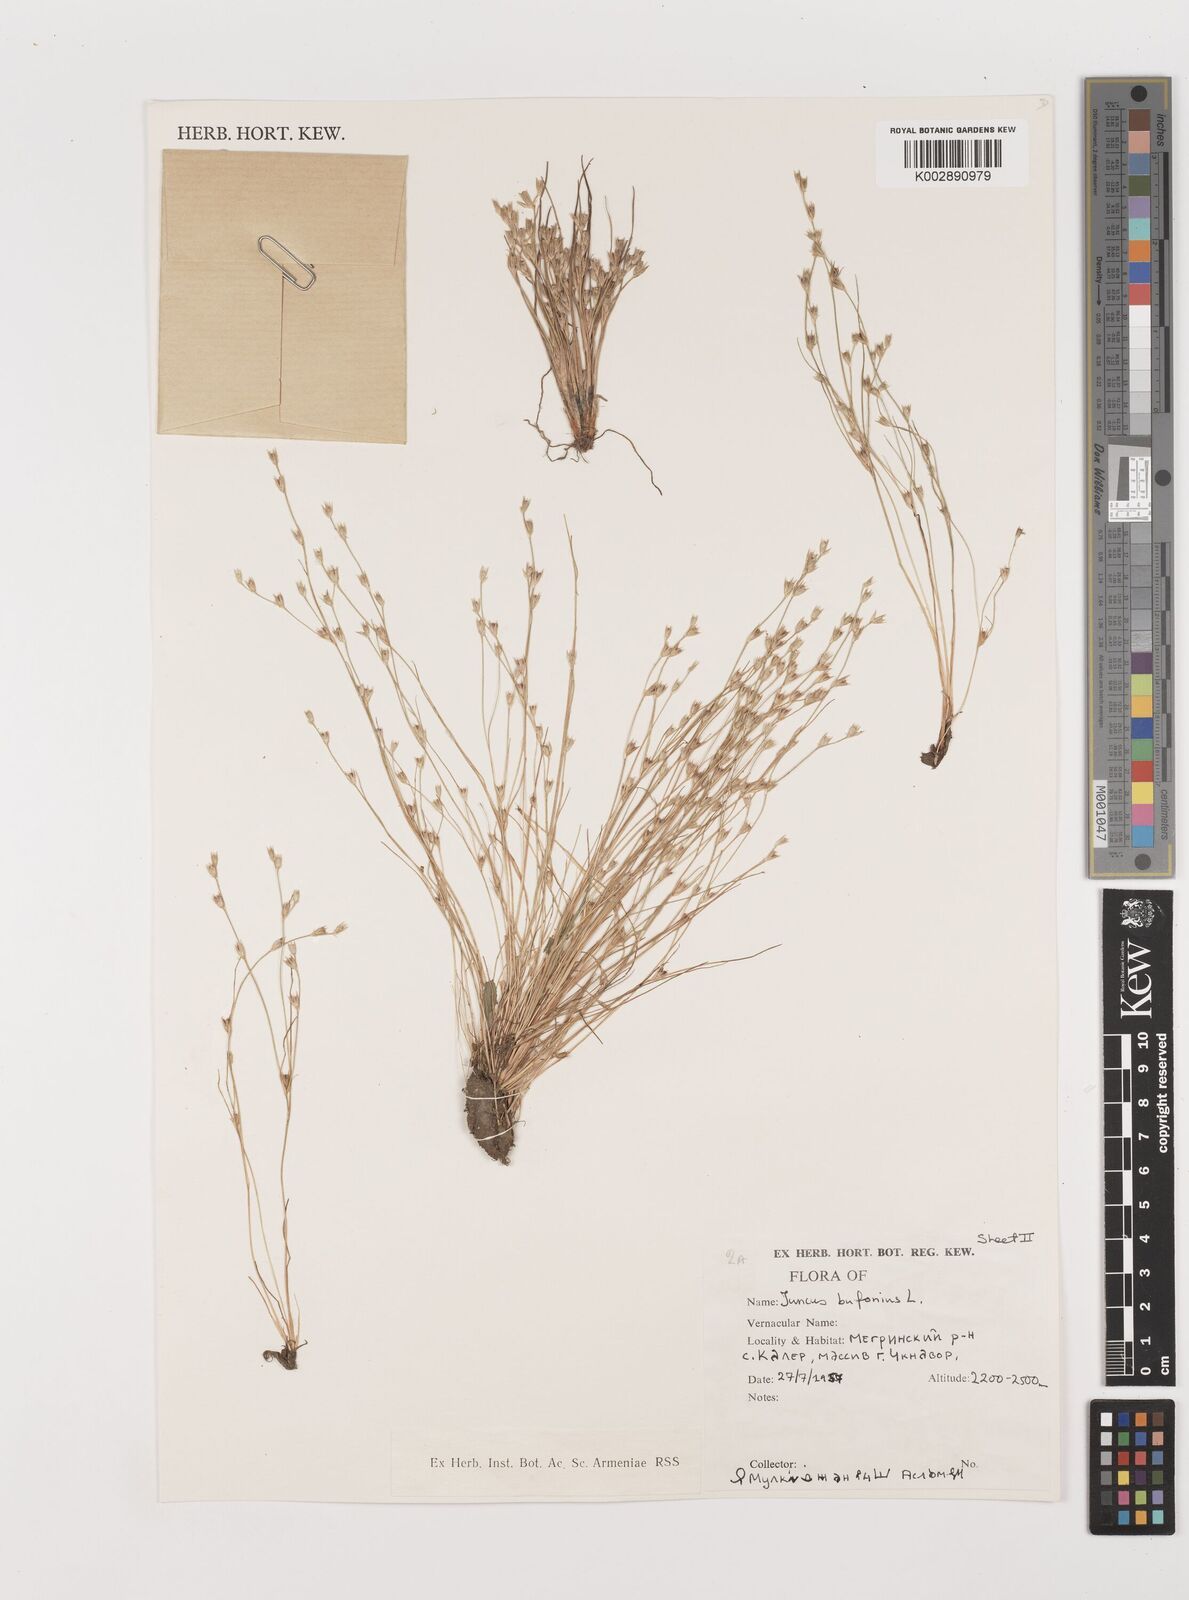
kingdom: Plantae
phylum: Tracheophyta
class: Liliopsida
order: Poales
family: Juncaceae
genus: Juncus
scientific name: Juncus bufonius
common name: Toad rush
